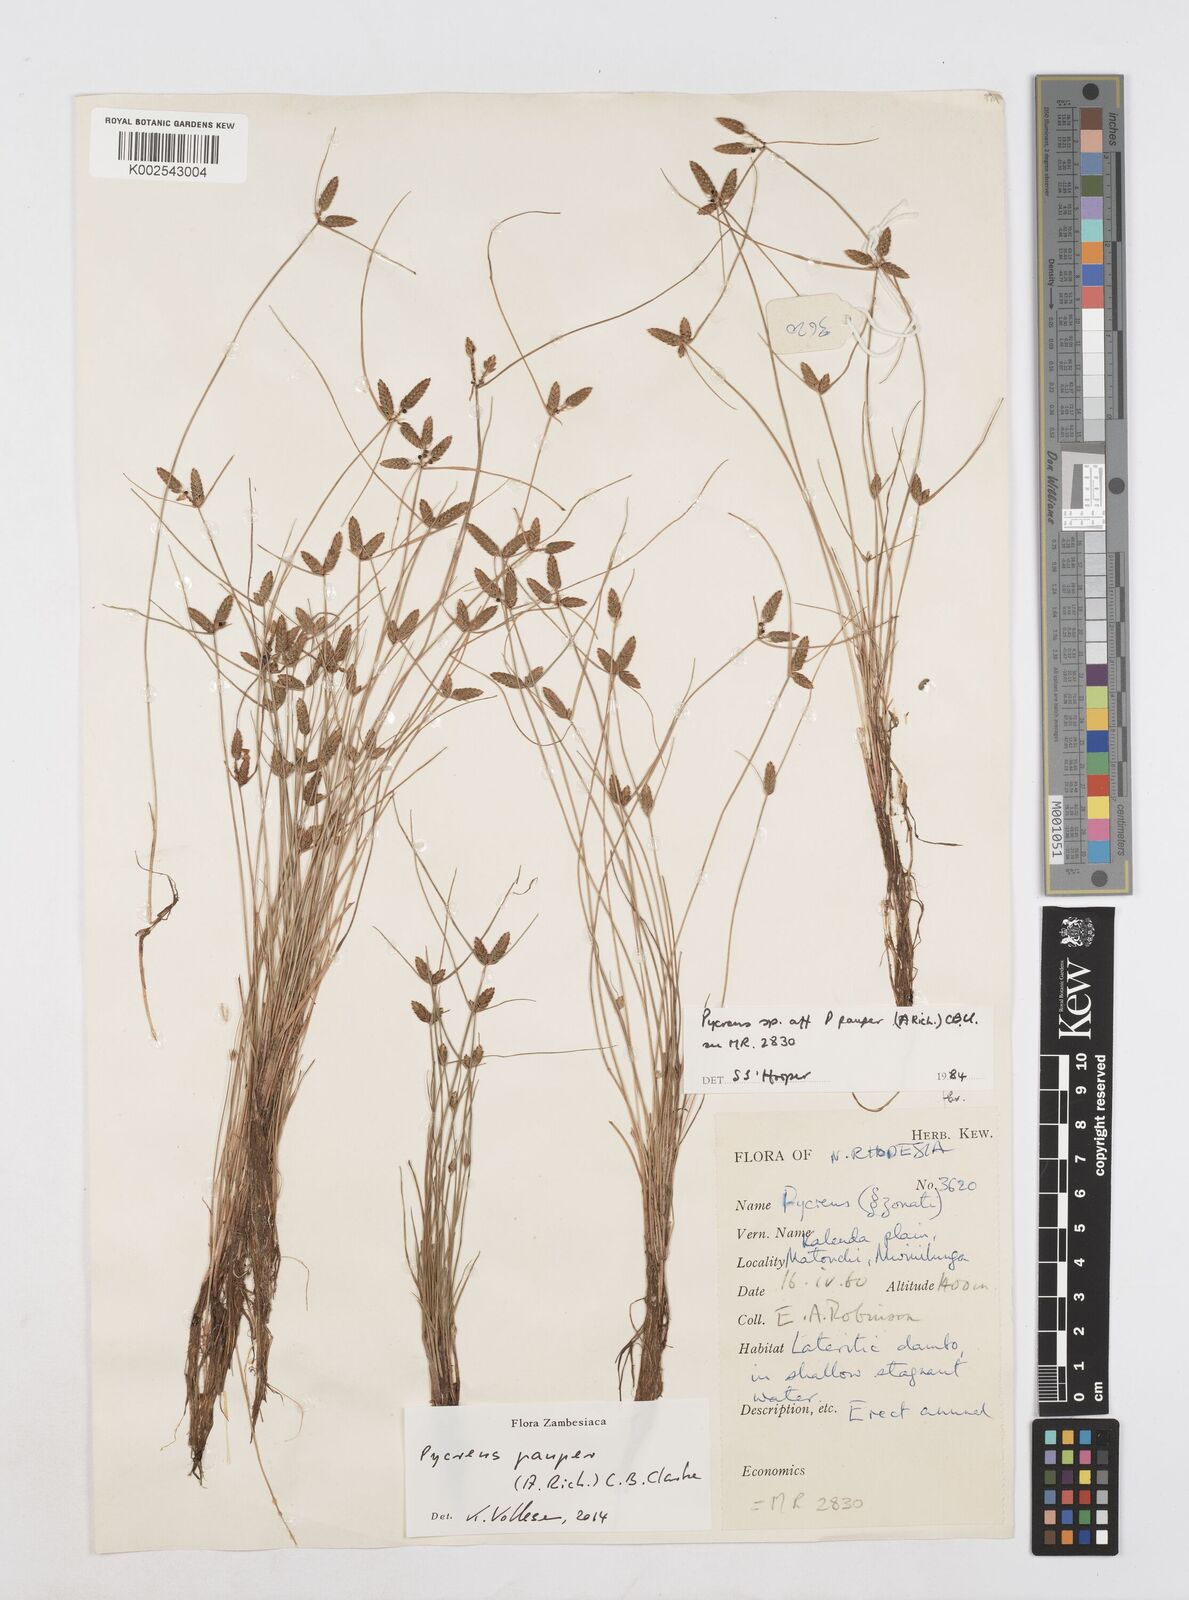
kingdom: Plantae
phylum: Tracheophyta
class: Liliopsida
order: Poales
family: Cyperaceae
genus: Cyperus
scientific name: Cyperus pauper
